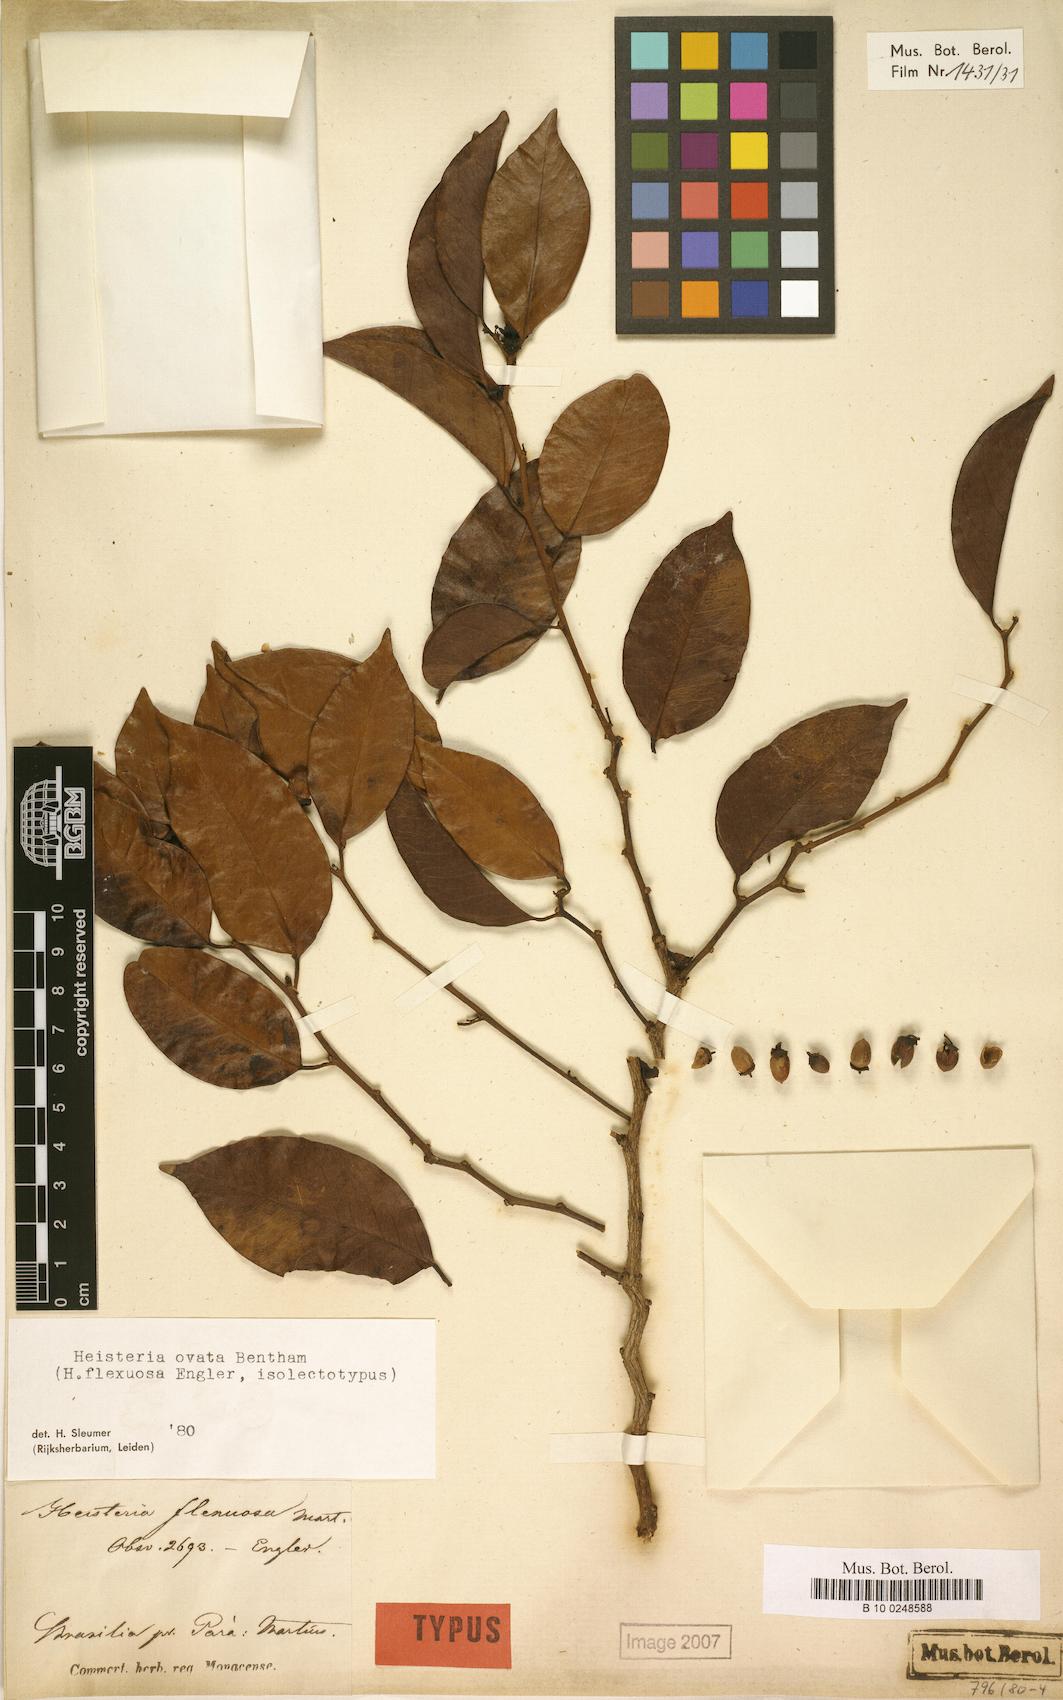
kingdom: Plantae
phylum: Tracheophyta
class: Magnoliopsida
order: Santalales
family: Erythropalaceae
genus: Heisteria
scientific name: Heisteria ovata
